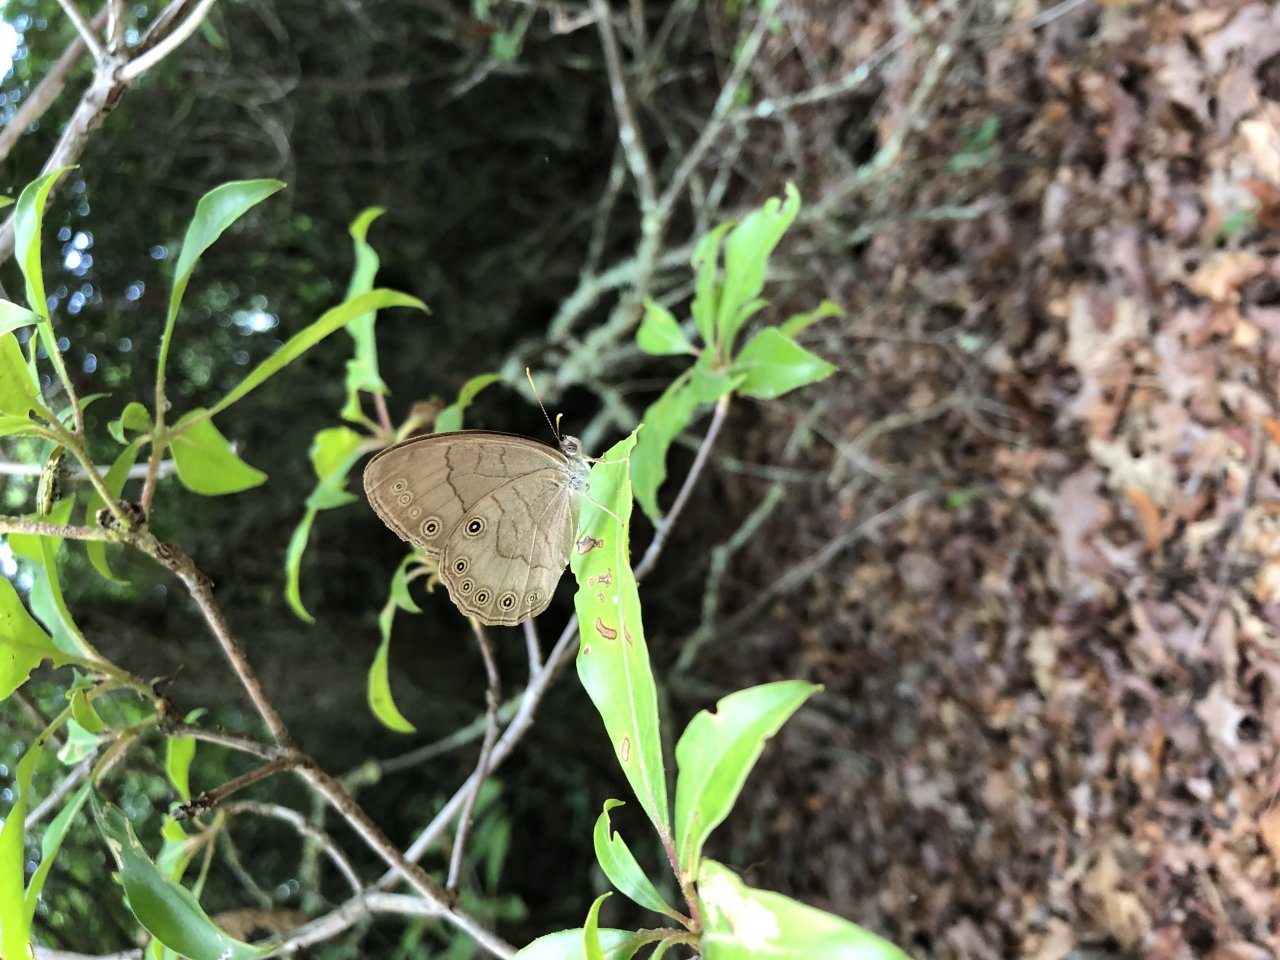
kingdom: Animalia
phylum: Arthropoda
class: Insecta
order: Lepidoptera
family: Nymphalidae
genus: Lethe
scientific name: Lethe eurydice
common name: Appalachian Eyed Brown
